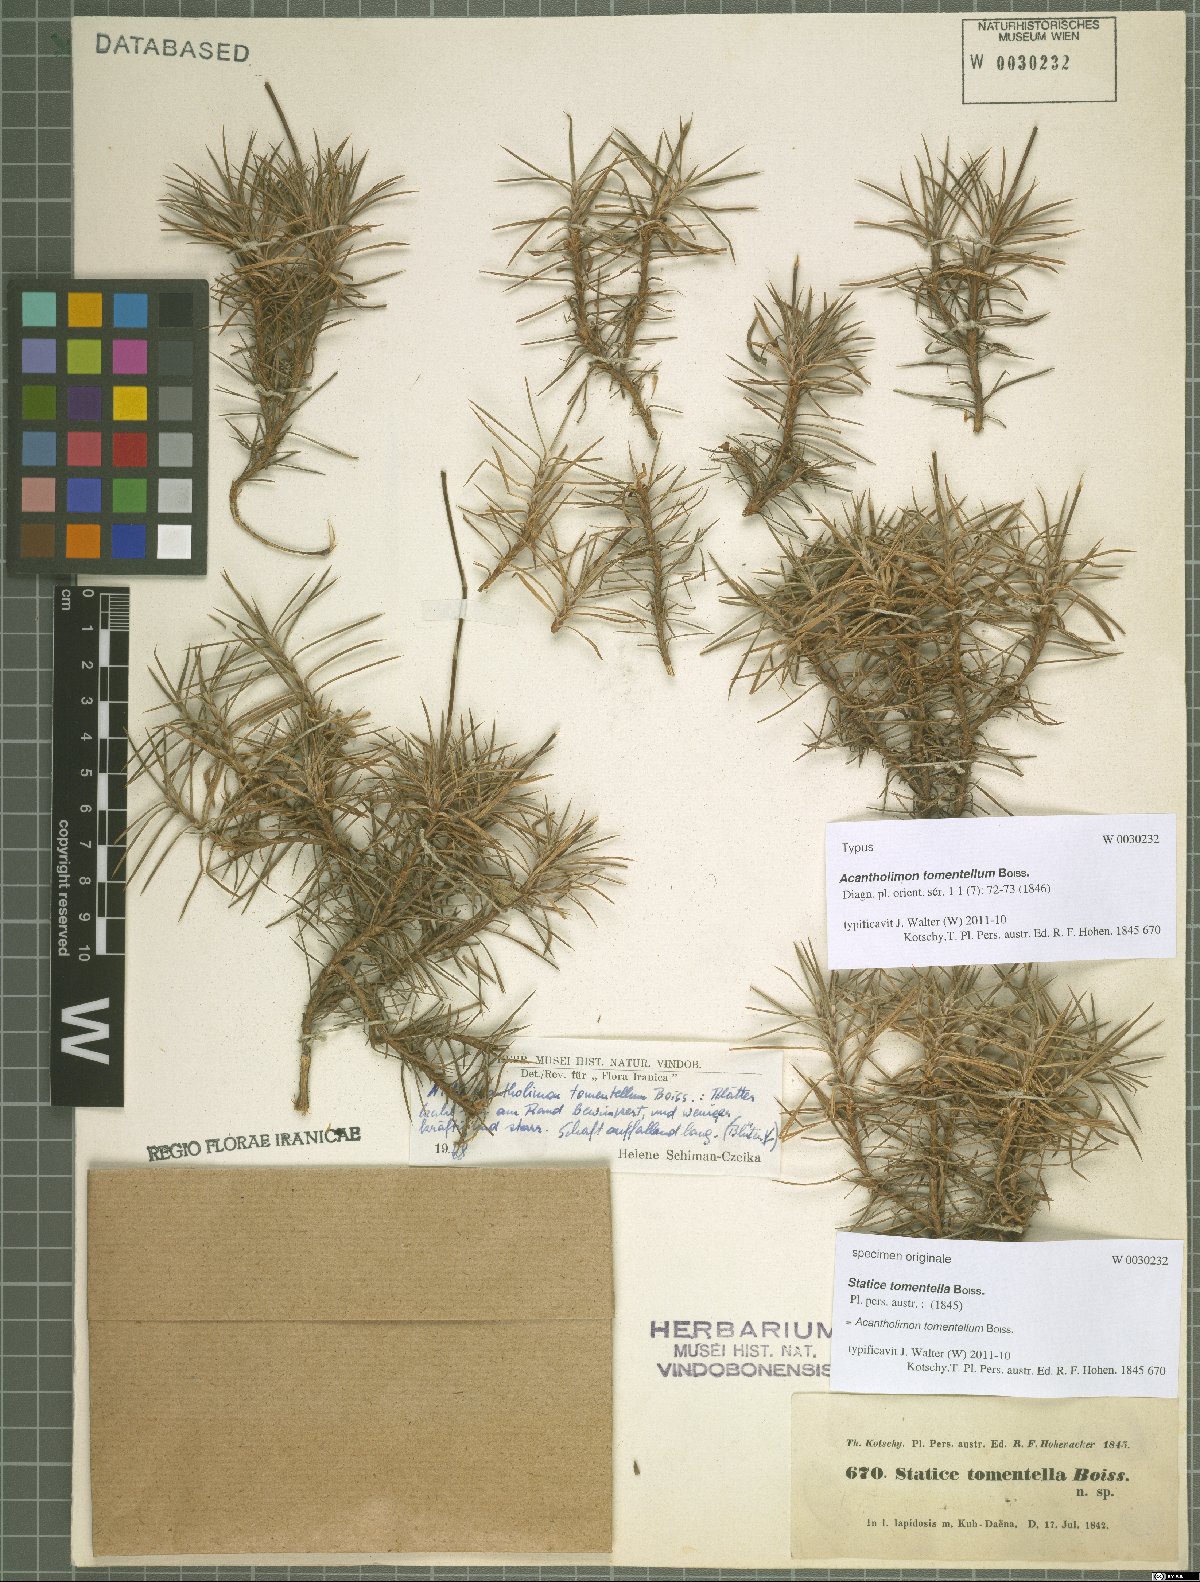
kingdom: Plantae
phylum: Tracheophyta
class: Magnoliopsida
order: Caryophyllales
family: Plumbaginaceae
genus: Acantholimon
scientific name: Acantholimon tomentellum
